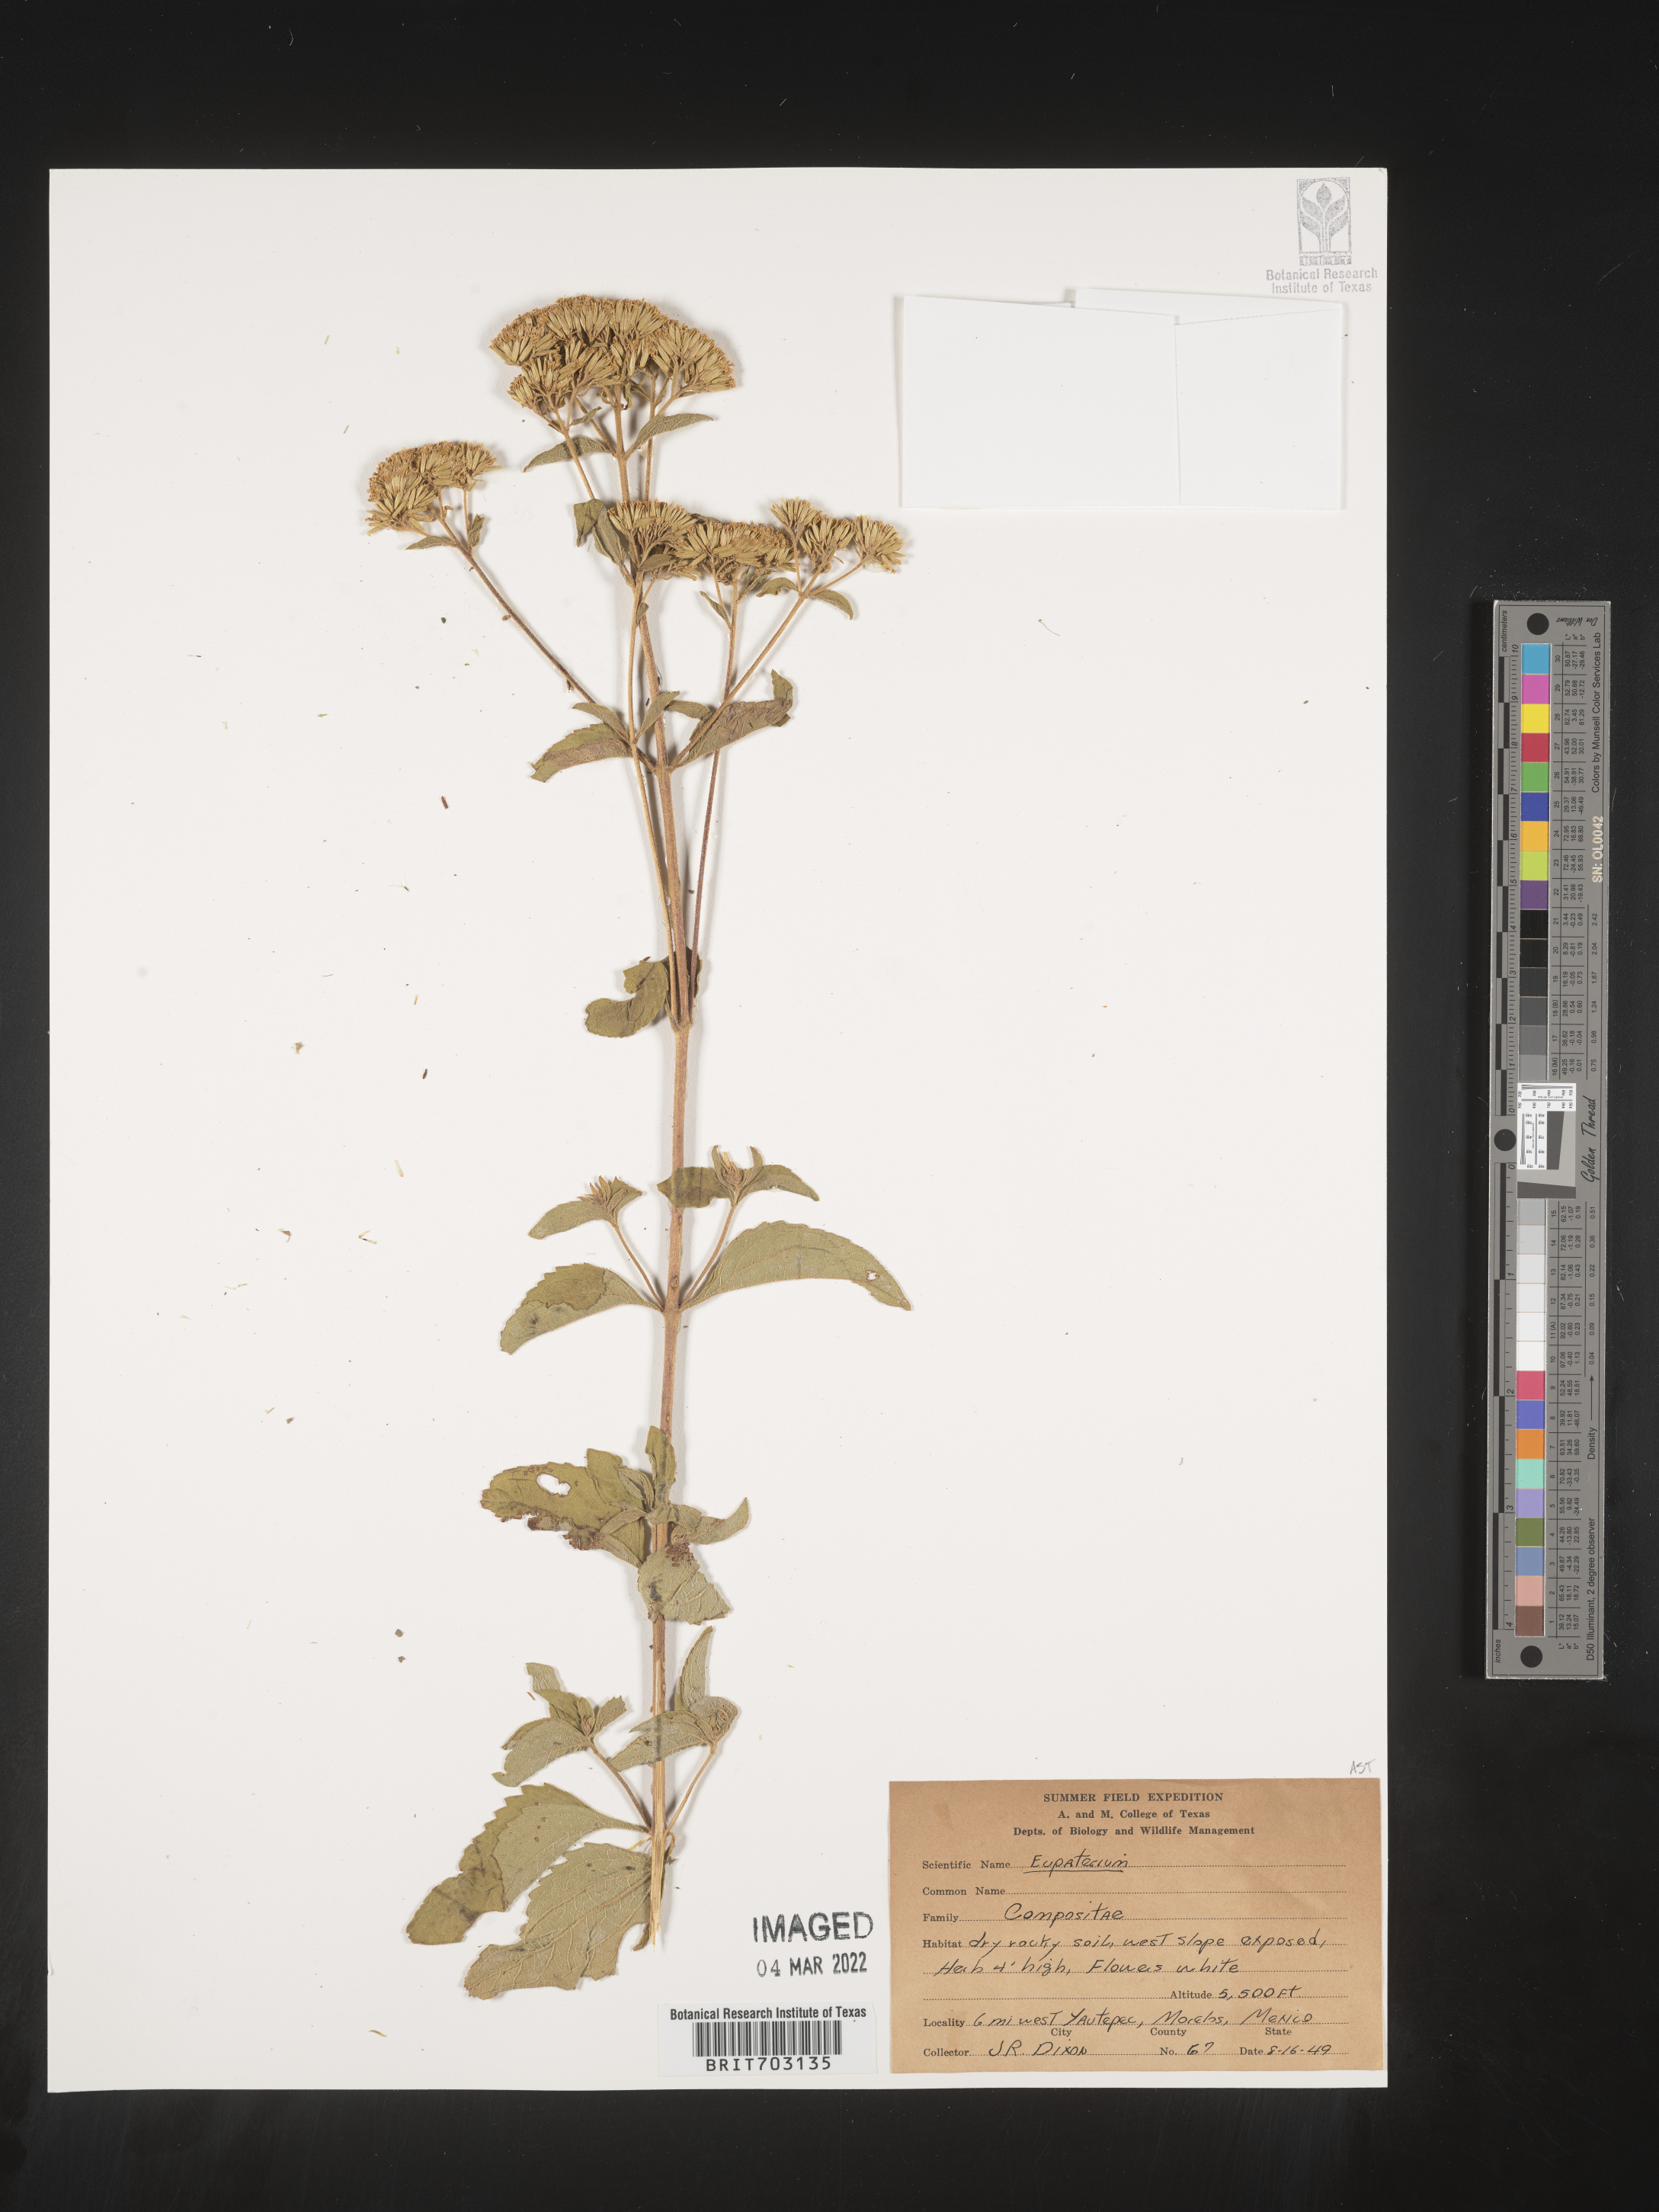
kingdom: Plantae
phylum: Tracheophyta
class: Magnoliopsida
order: Asterales
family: Asteraceae
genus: Eupatorium
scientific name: Eupatorium
